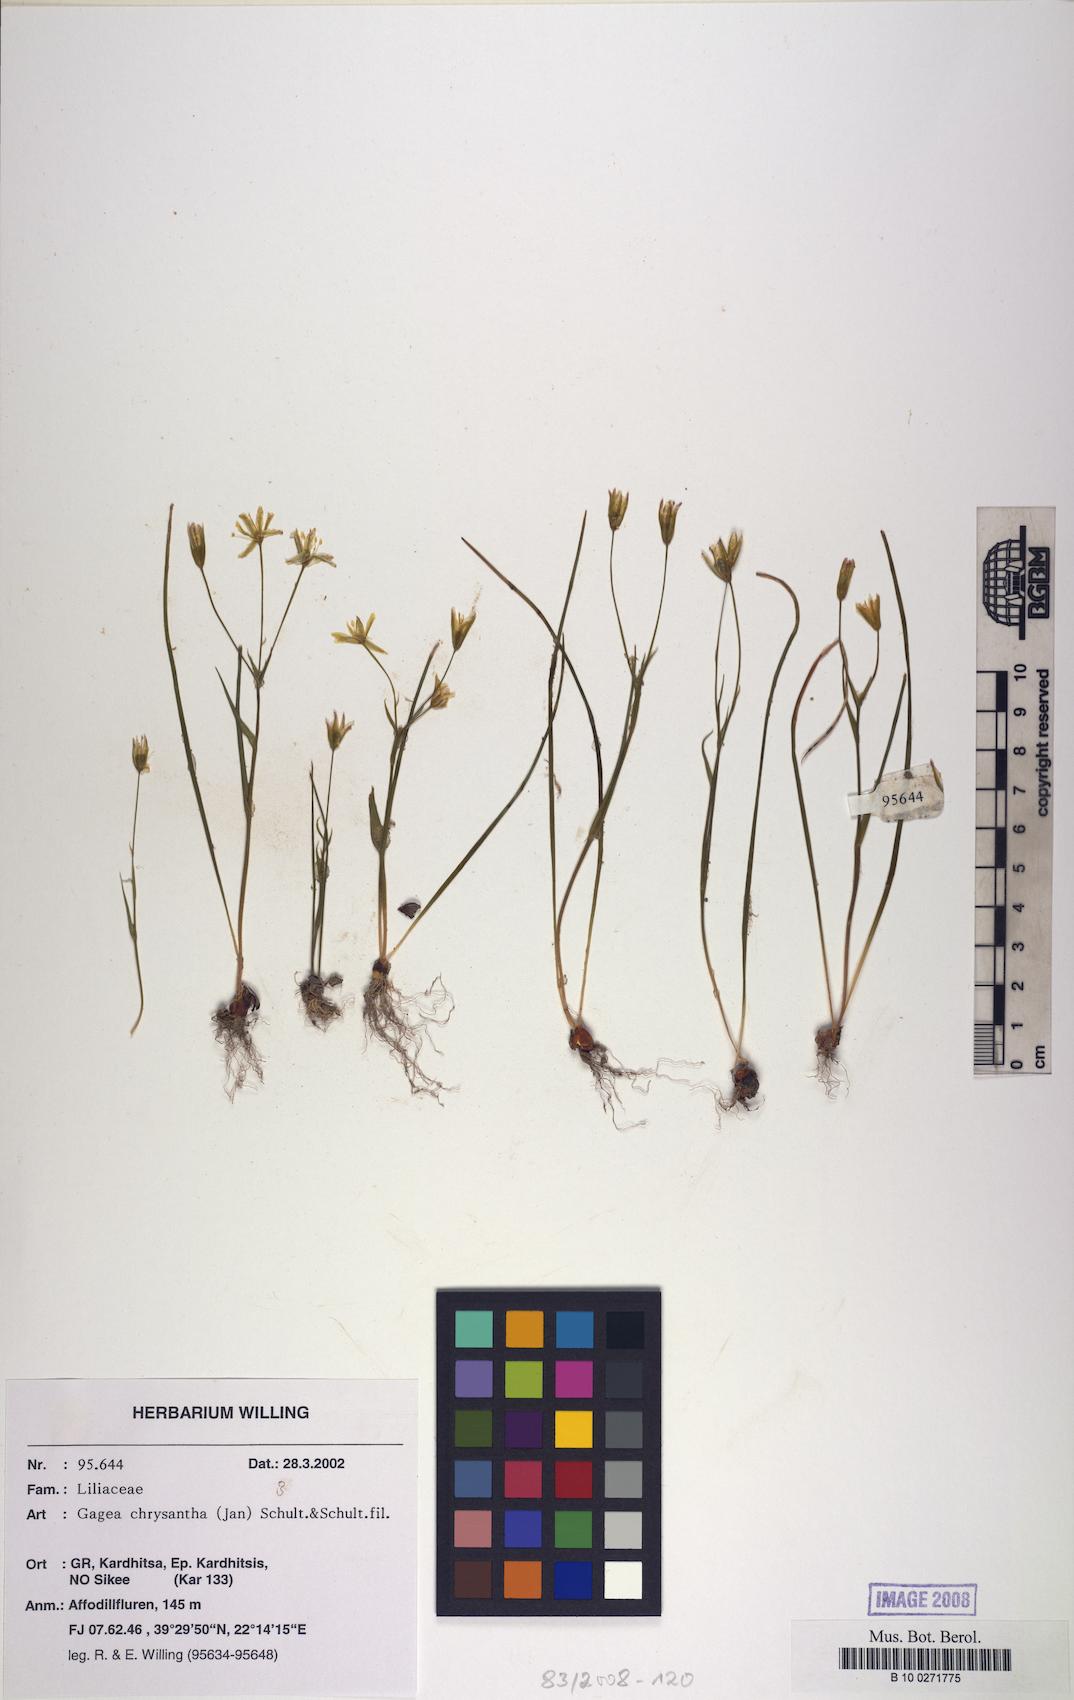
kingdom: Plantae
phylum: Tracheophyta
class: Liliopsida
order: Liliales
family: Liliaceae
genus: Gagea
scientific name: Gagea chrysantha
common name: Golden gagea
